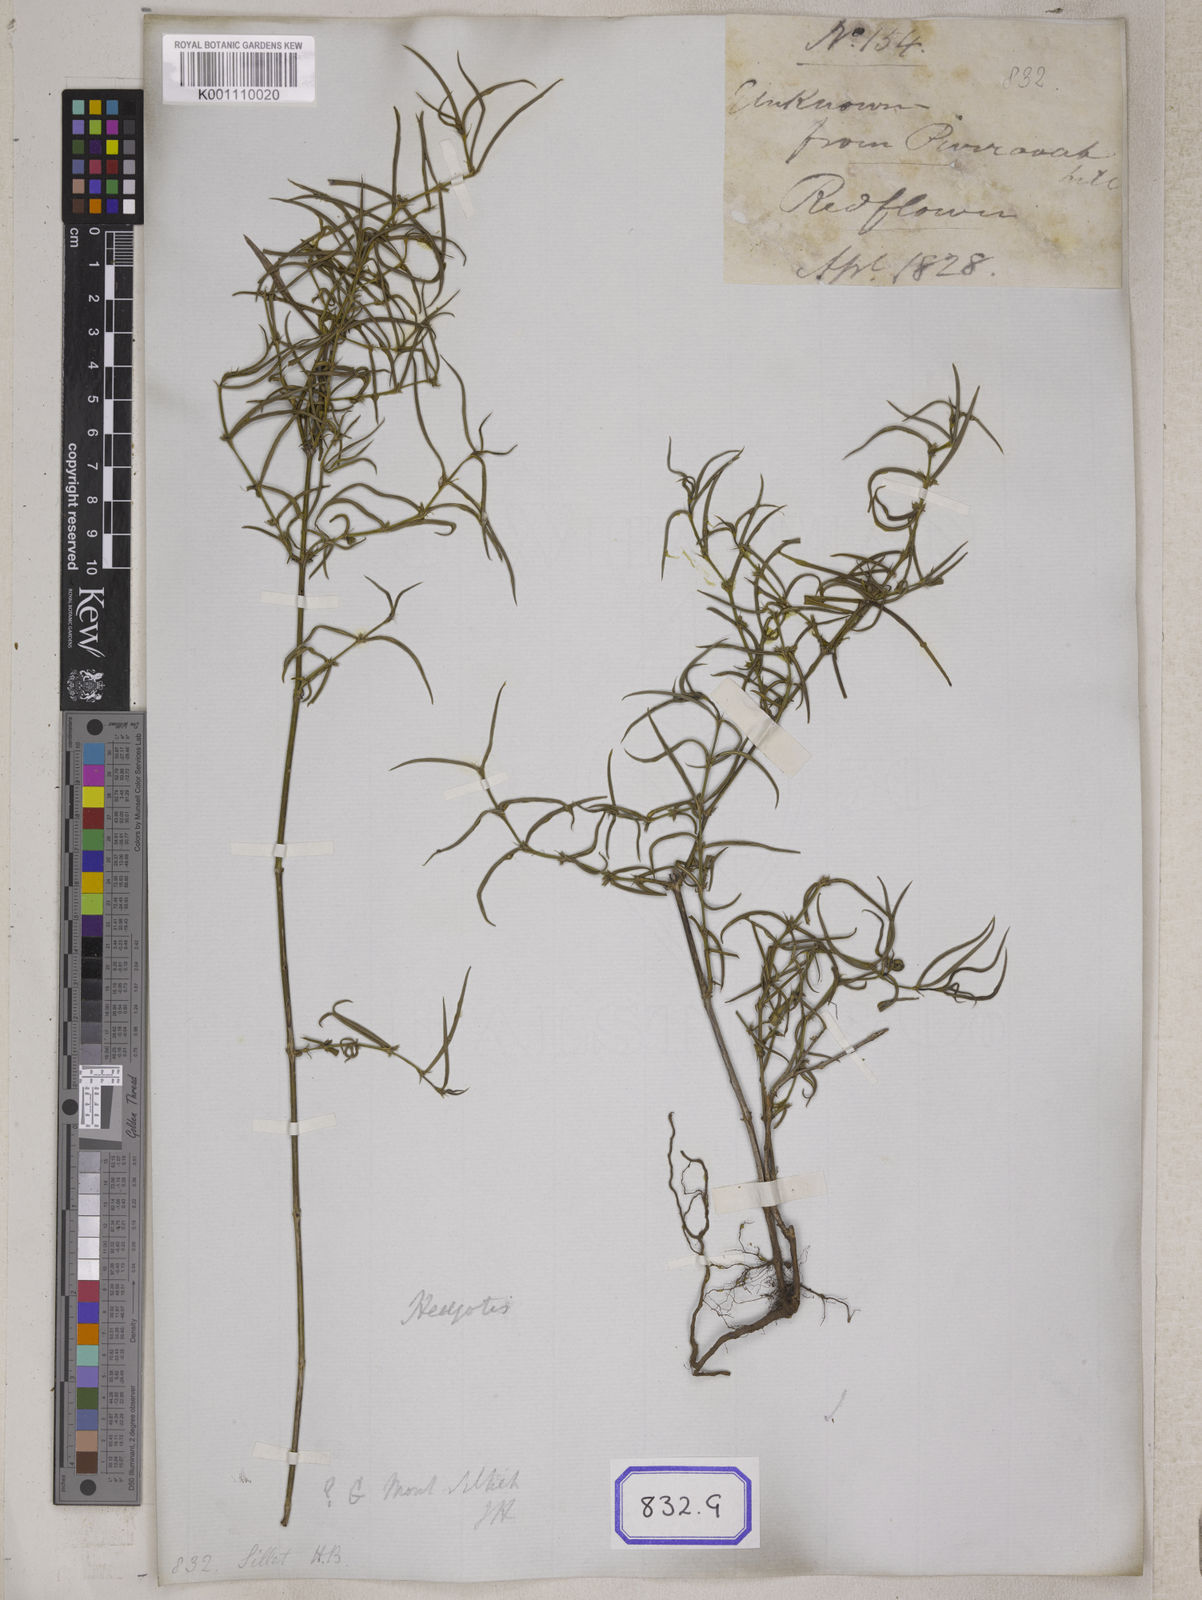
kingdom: Plantae
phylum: Tracheophyta
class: Magnoliopsida
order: Gentianales
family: Rubiaceae
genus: Spermacoce
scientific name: Spermacoce
